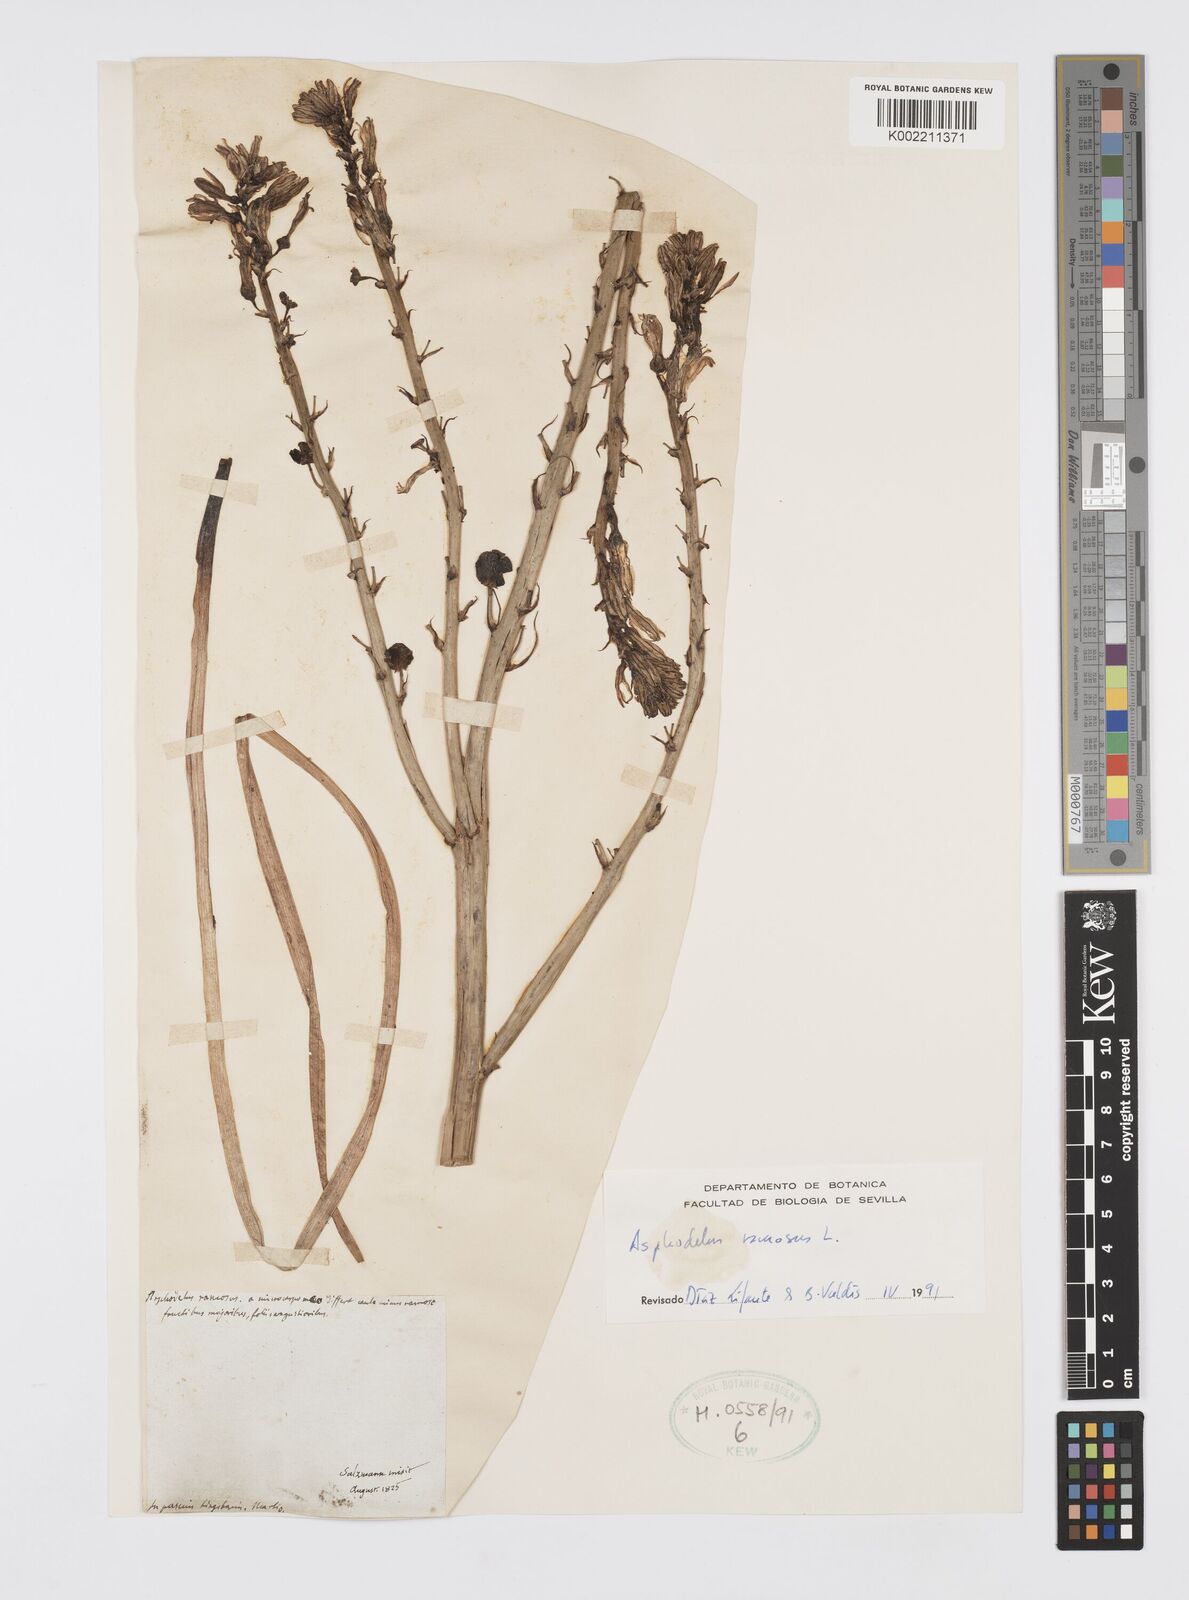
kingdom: Plantae
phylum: Tracheophyta
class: Liliopsida
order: Asparagales
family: Asphodelaceae
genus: Asphodelus
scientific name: Asphodelus ramosus
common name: Silverrod
